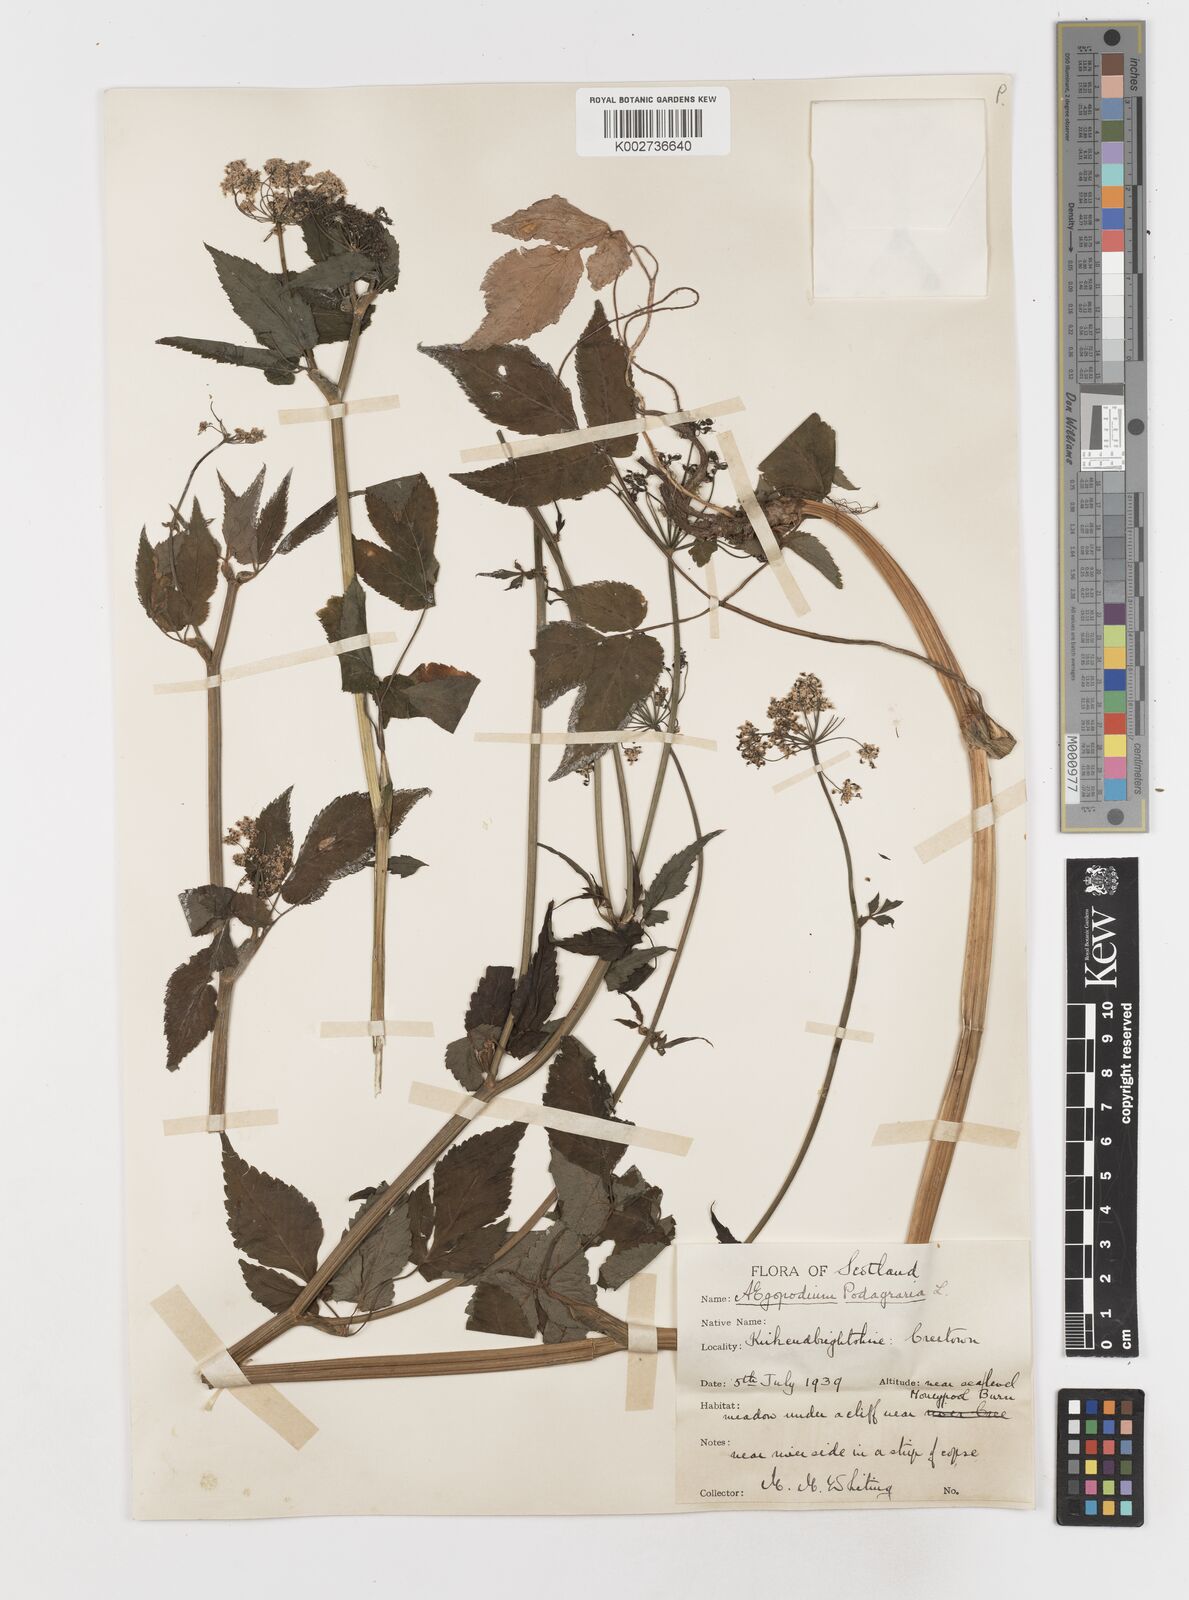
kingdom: Plantae
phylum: Tracheophyta
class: Magnoliopsida
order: Apiales
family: Apiaceae
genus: Aegopodium
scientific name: Aegopodium podagraria
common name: Ground-elder
